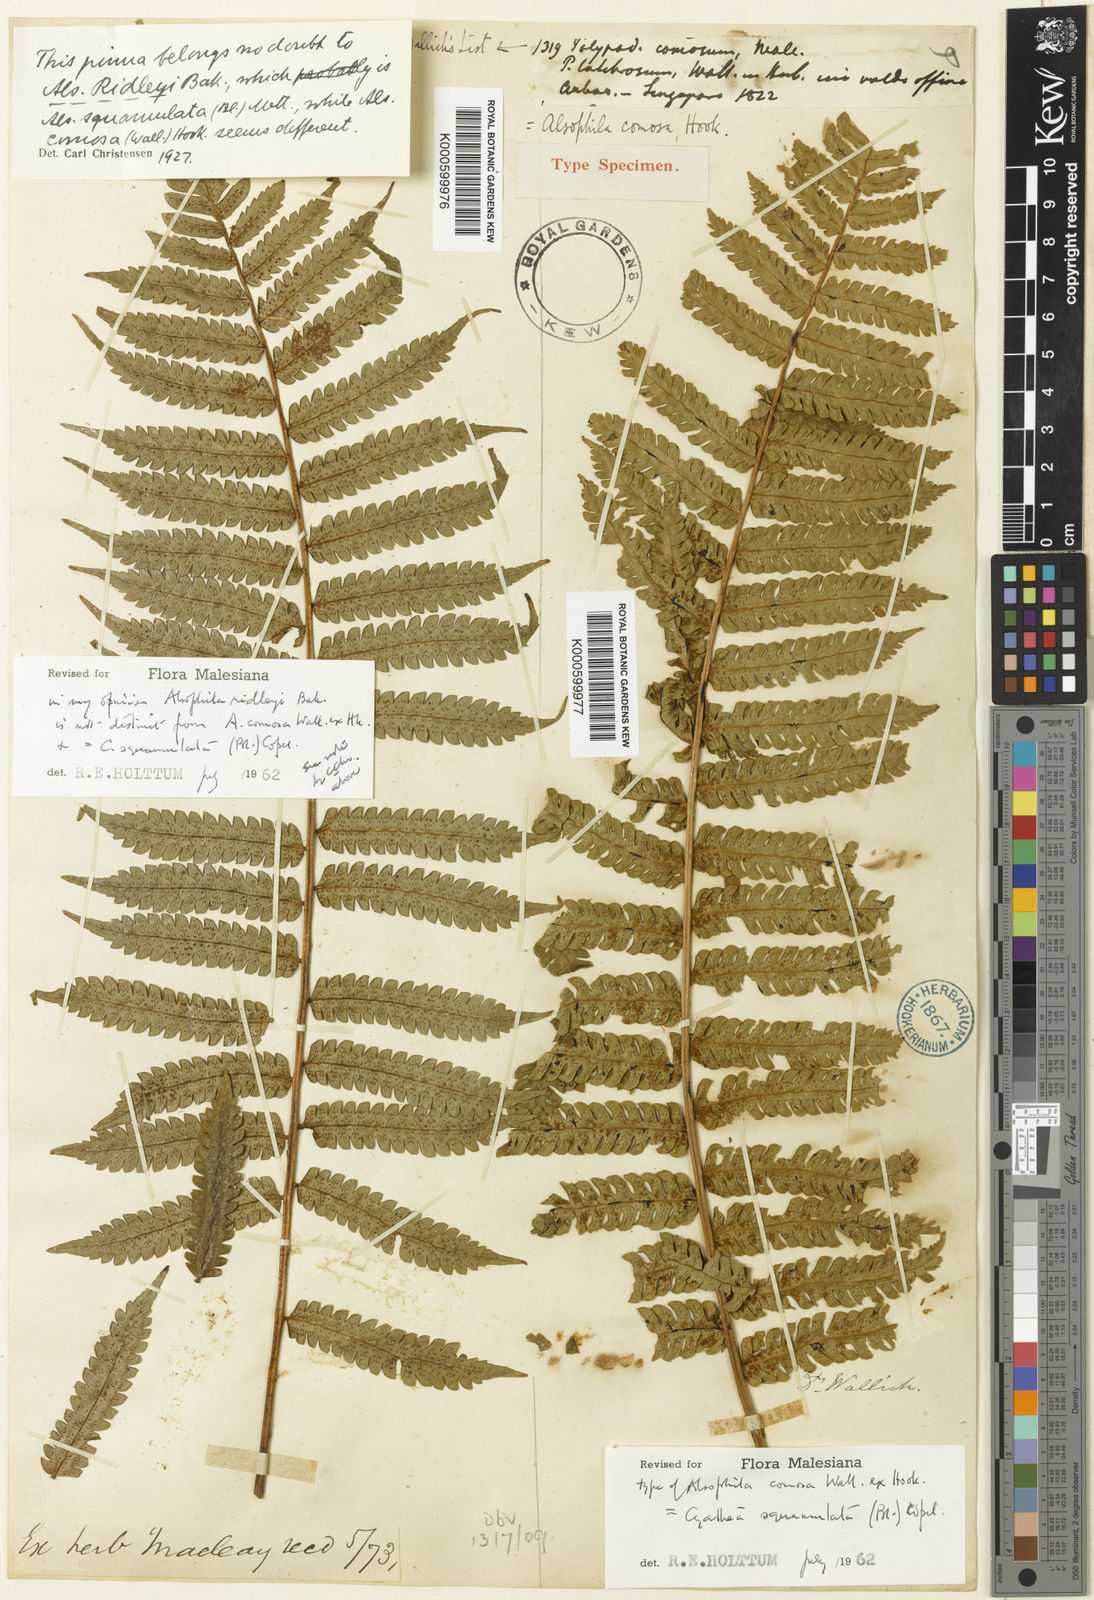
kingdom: Plantae
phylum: Tracheophyta
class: Polypodiopsida
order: Cyatheales
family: Cyatheaceae
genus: Sphaeropteris
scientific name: Sphaeropteris squamulata
